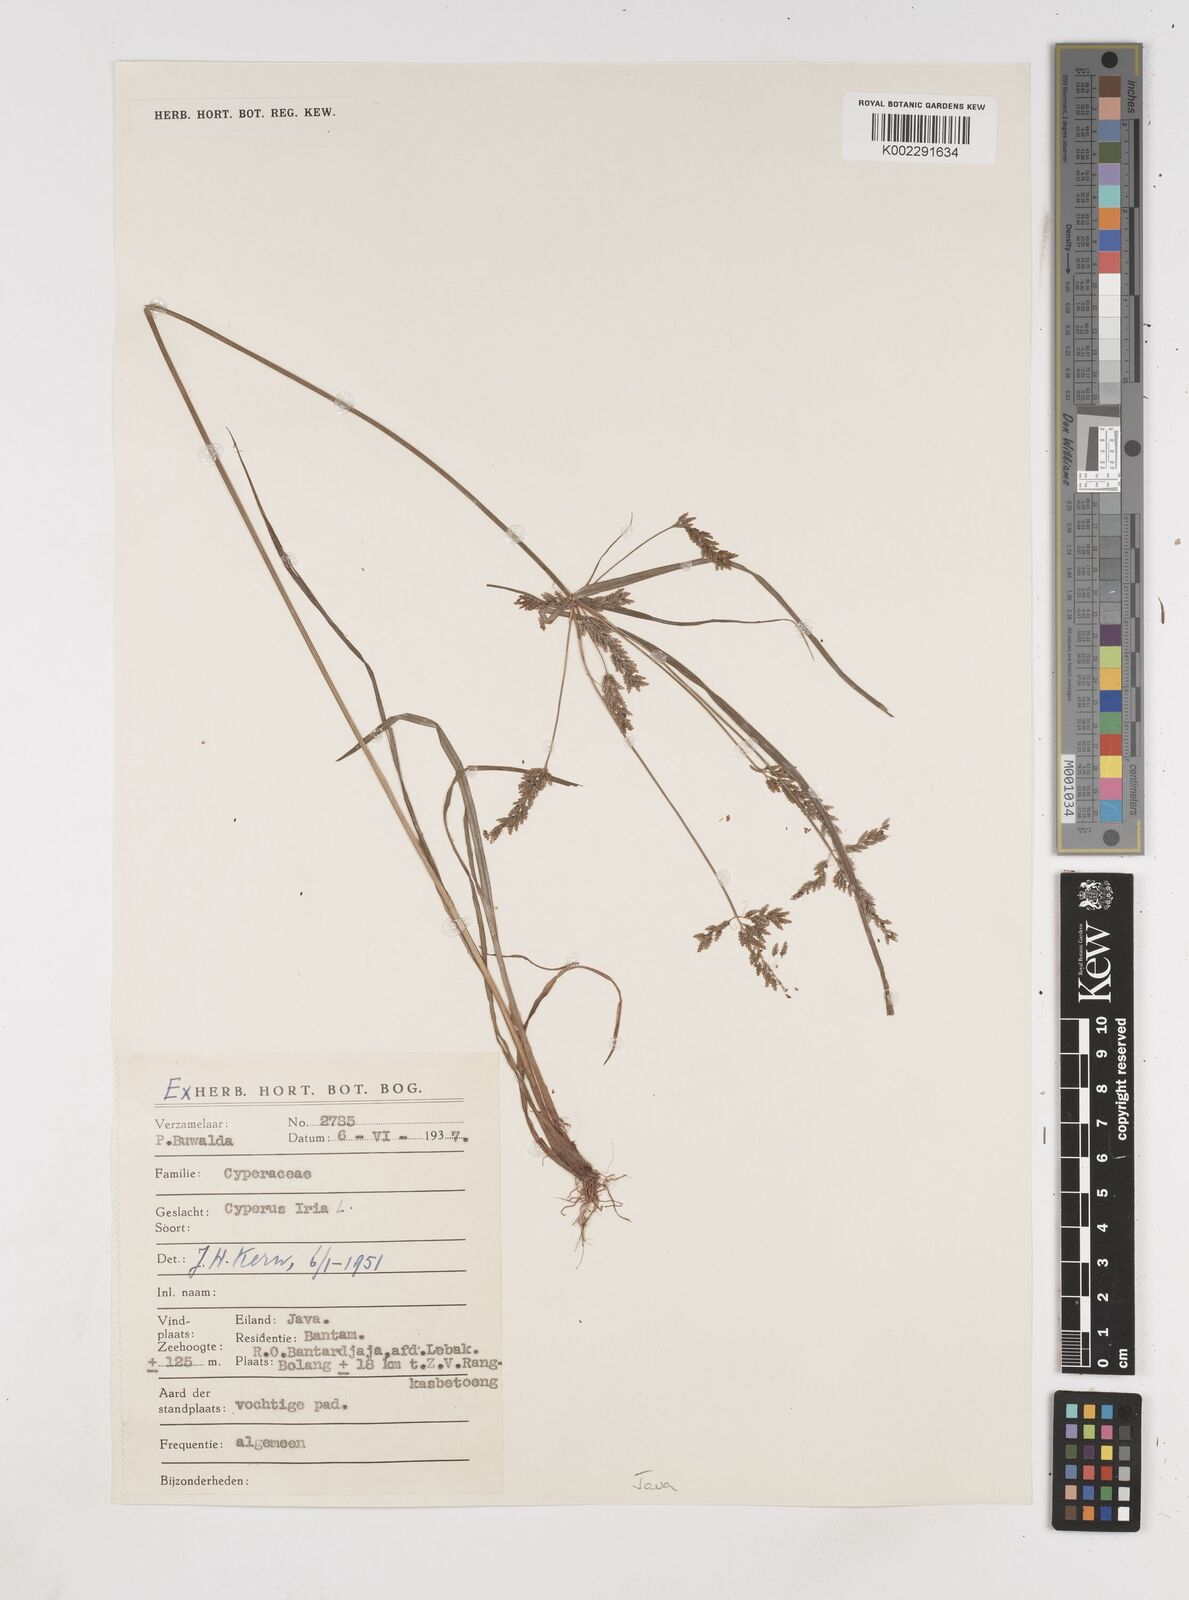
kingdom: Plantae
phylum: Tracheophyta
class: Liliopsida
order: Poales
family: Cyperaceae
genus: Cyperus
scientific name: Cyperus iria
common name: Ricefield flatsedge
